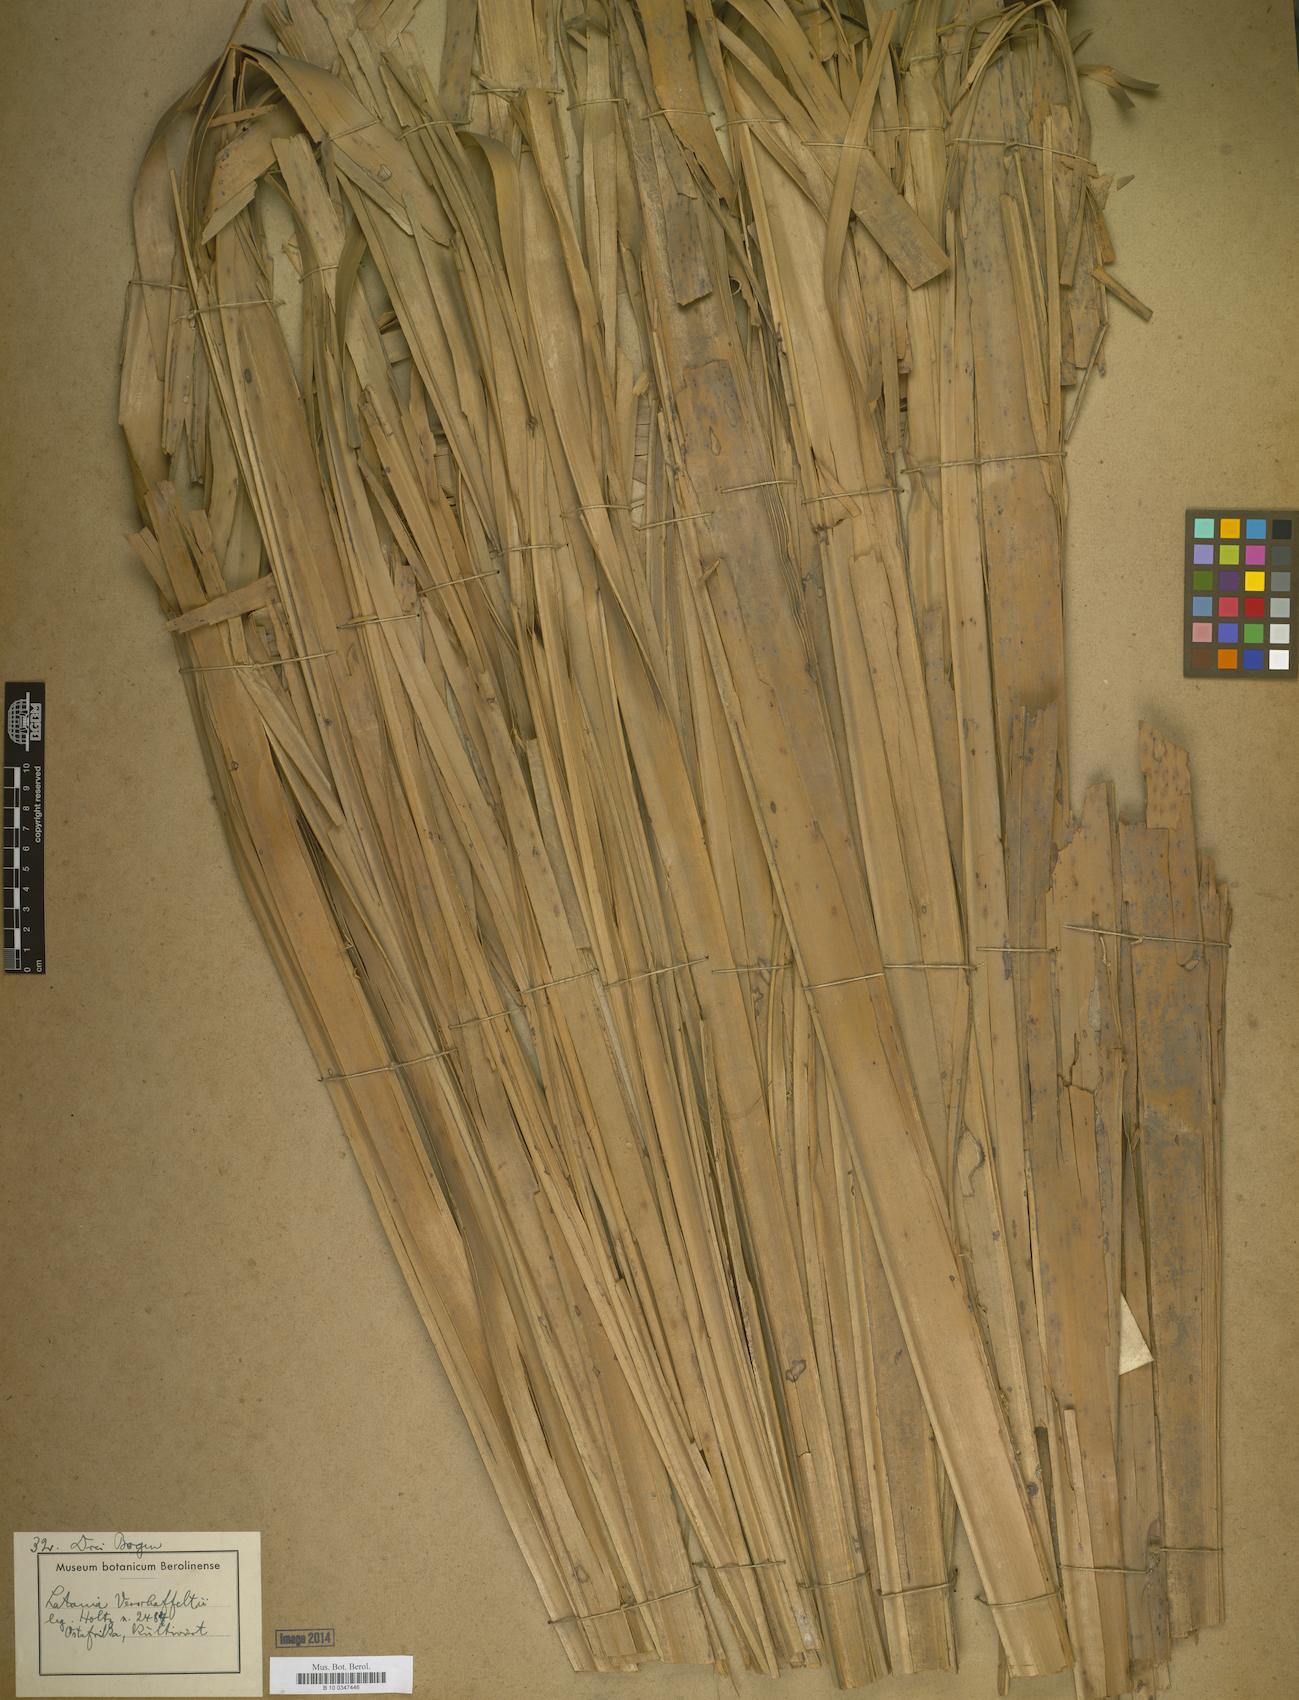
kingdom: Plantae
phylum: Tracheophyta
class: Liliopsida
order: Arecales
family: Arecaceae
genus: Latania
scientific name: Latania
